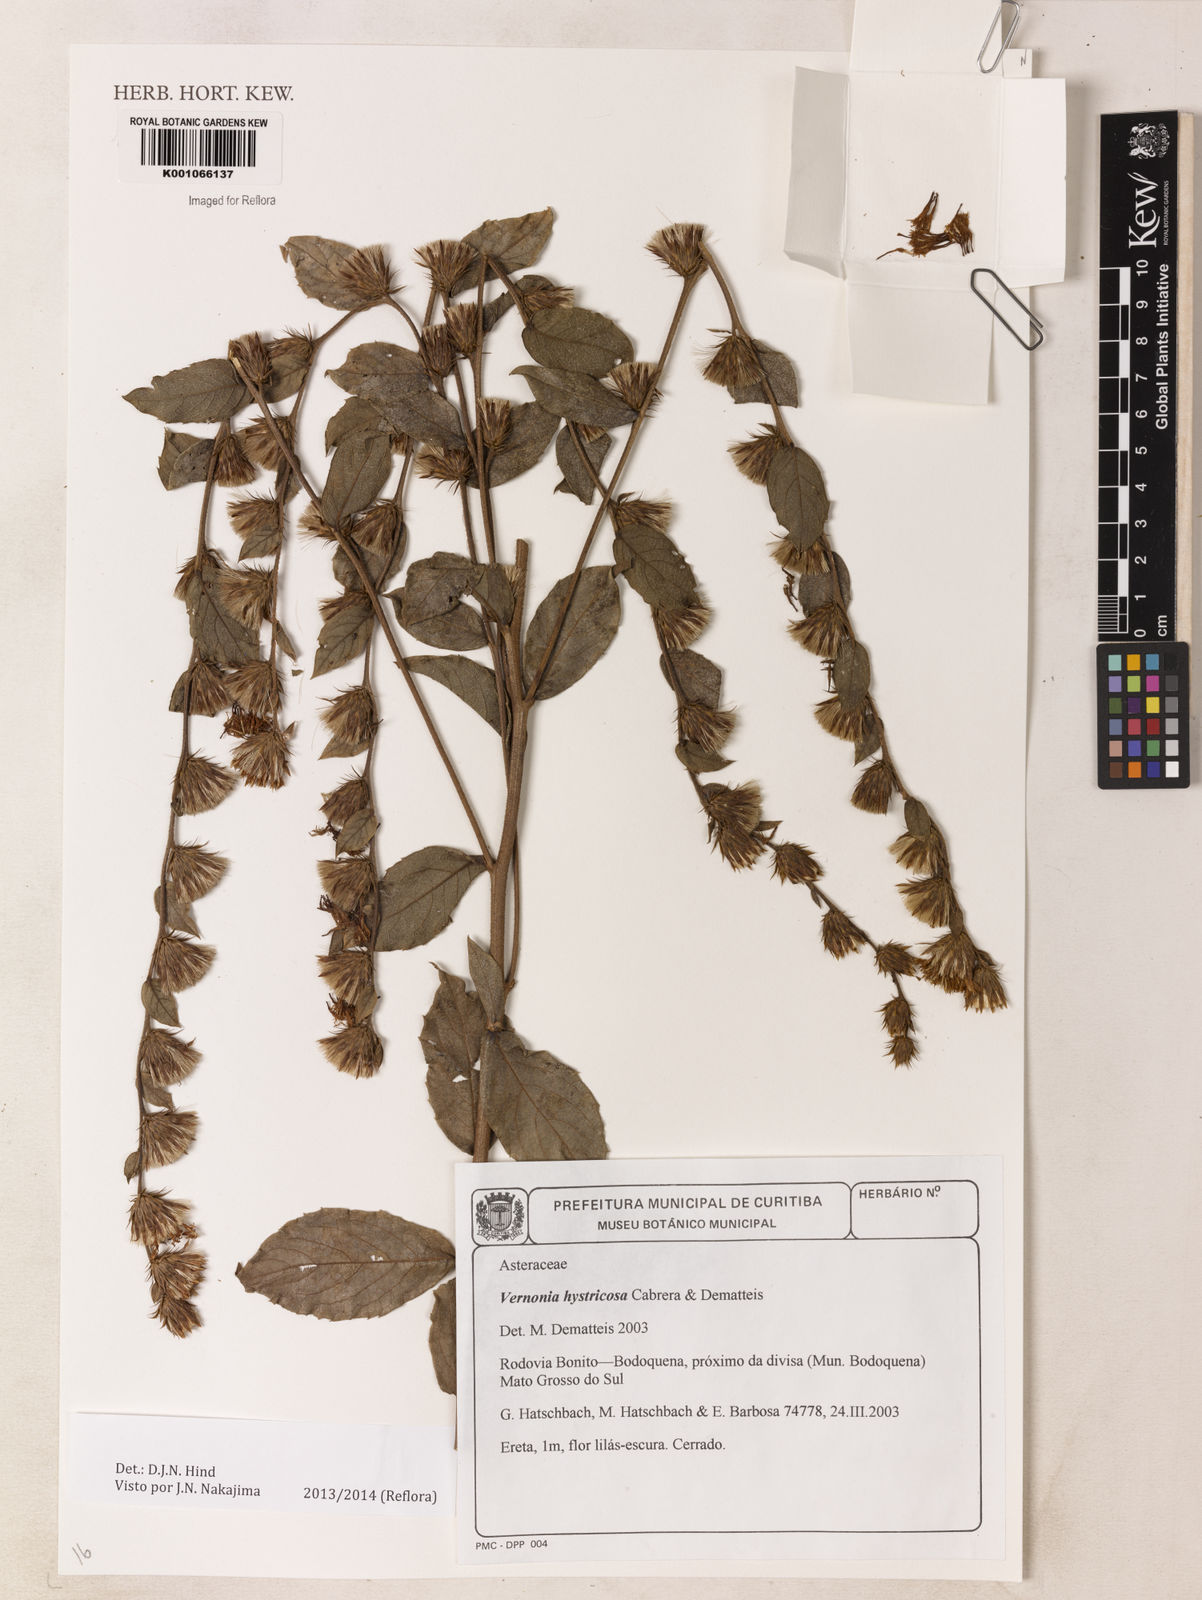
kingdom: Plantae
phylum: Tracheophyta
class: Magnoliopsida
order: Asterales
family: Asteraceae
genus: Lessingianthus
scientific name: Lessingianthus hystricosus
